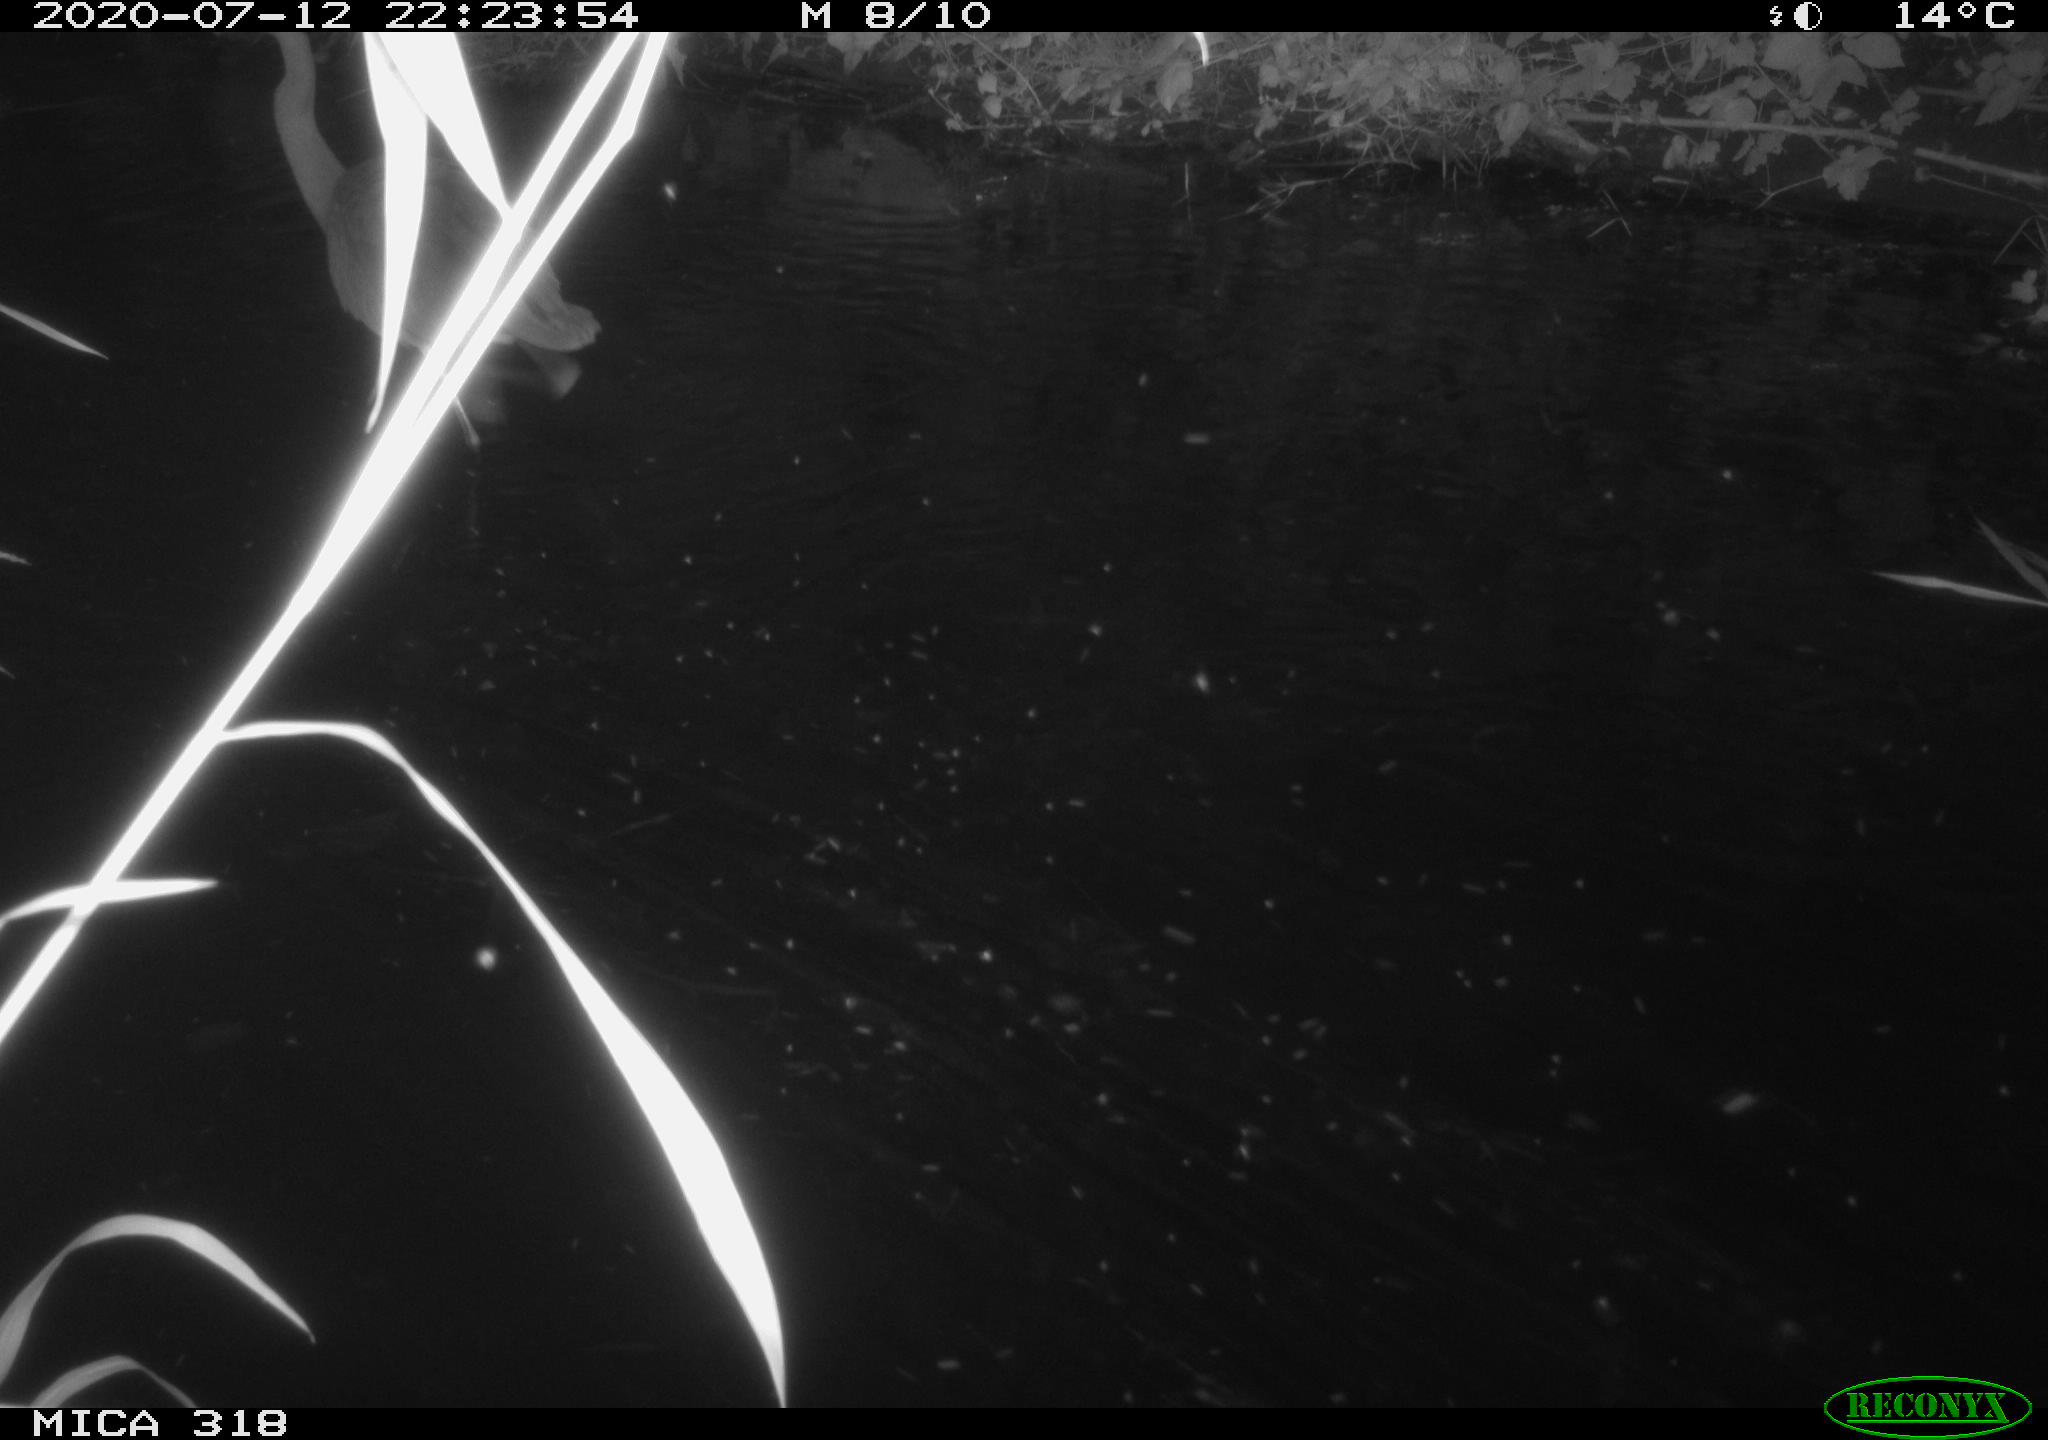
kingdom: Animalia
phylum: Chordata
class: Aves
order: Pelecaniformes
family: Ardeidae
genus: Ardea
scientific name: Ardea cinerea
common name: Grey heron
